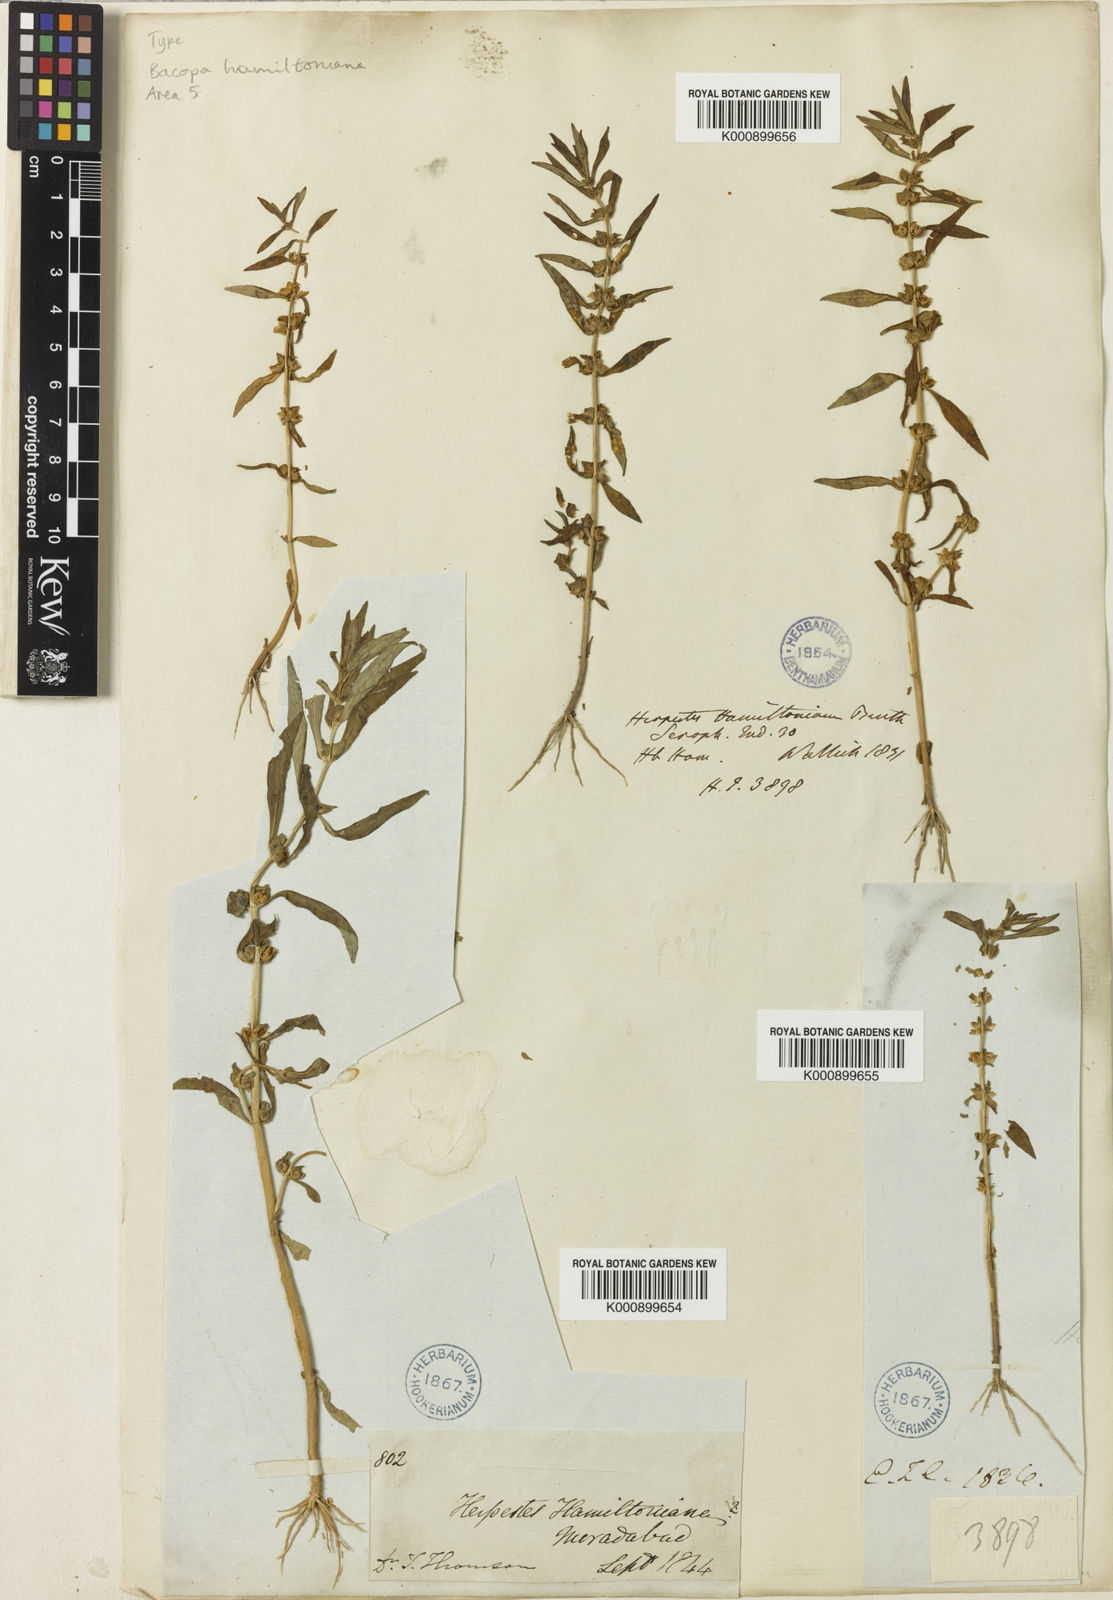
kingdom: Plantae
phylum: Tracheophyta
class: Magnoliopsida
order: Lamiales
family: Plantaginaceae
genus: Bacopa
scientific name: Bacopa hamiltoniana
